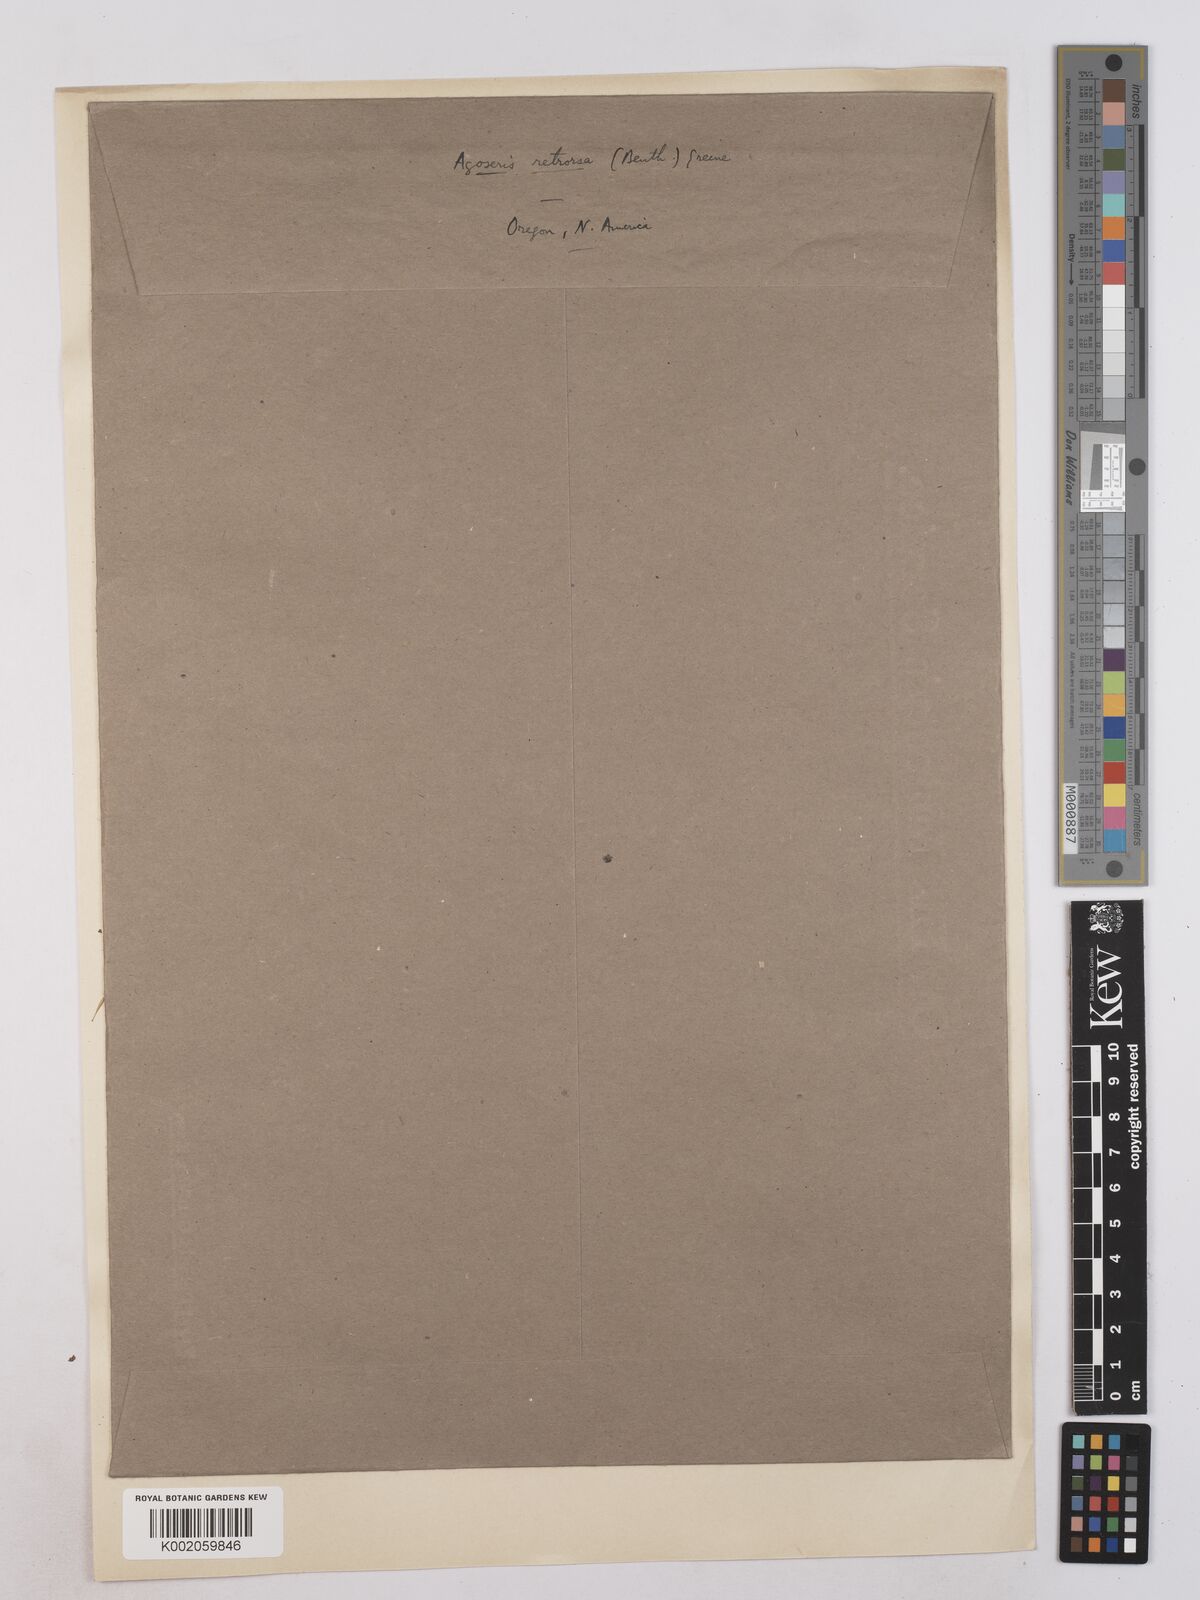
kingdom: Plantae
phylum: Tracheophyta
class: Magnoliopsida
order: Asterales
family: Asteraceae
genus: Agoseris
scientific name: Agoseris retrorsa
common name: Spearleaf agoseris
